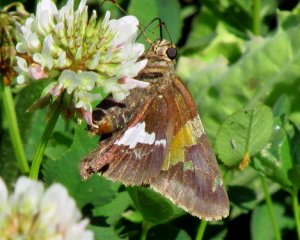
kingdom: Animalia
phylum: Arthropoda
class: Insecta
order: Lepidoptera
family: Hesperiidae
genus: Epargyreus
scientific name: Epargyreus clarus
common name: Silver-spotted Skipper
